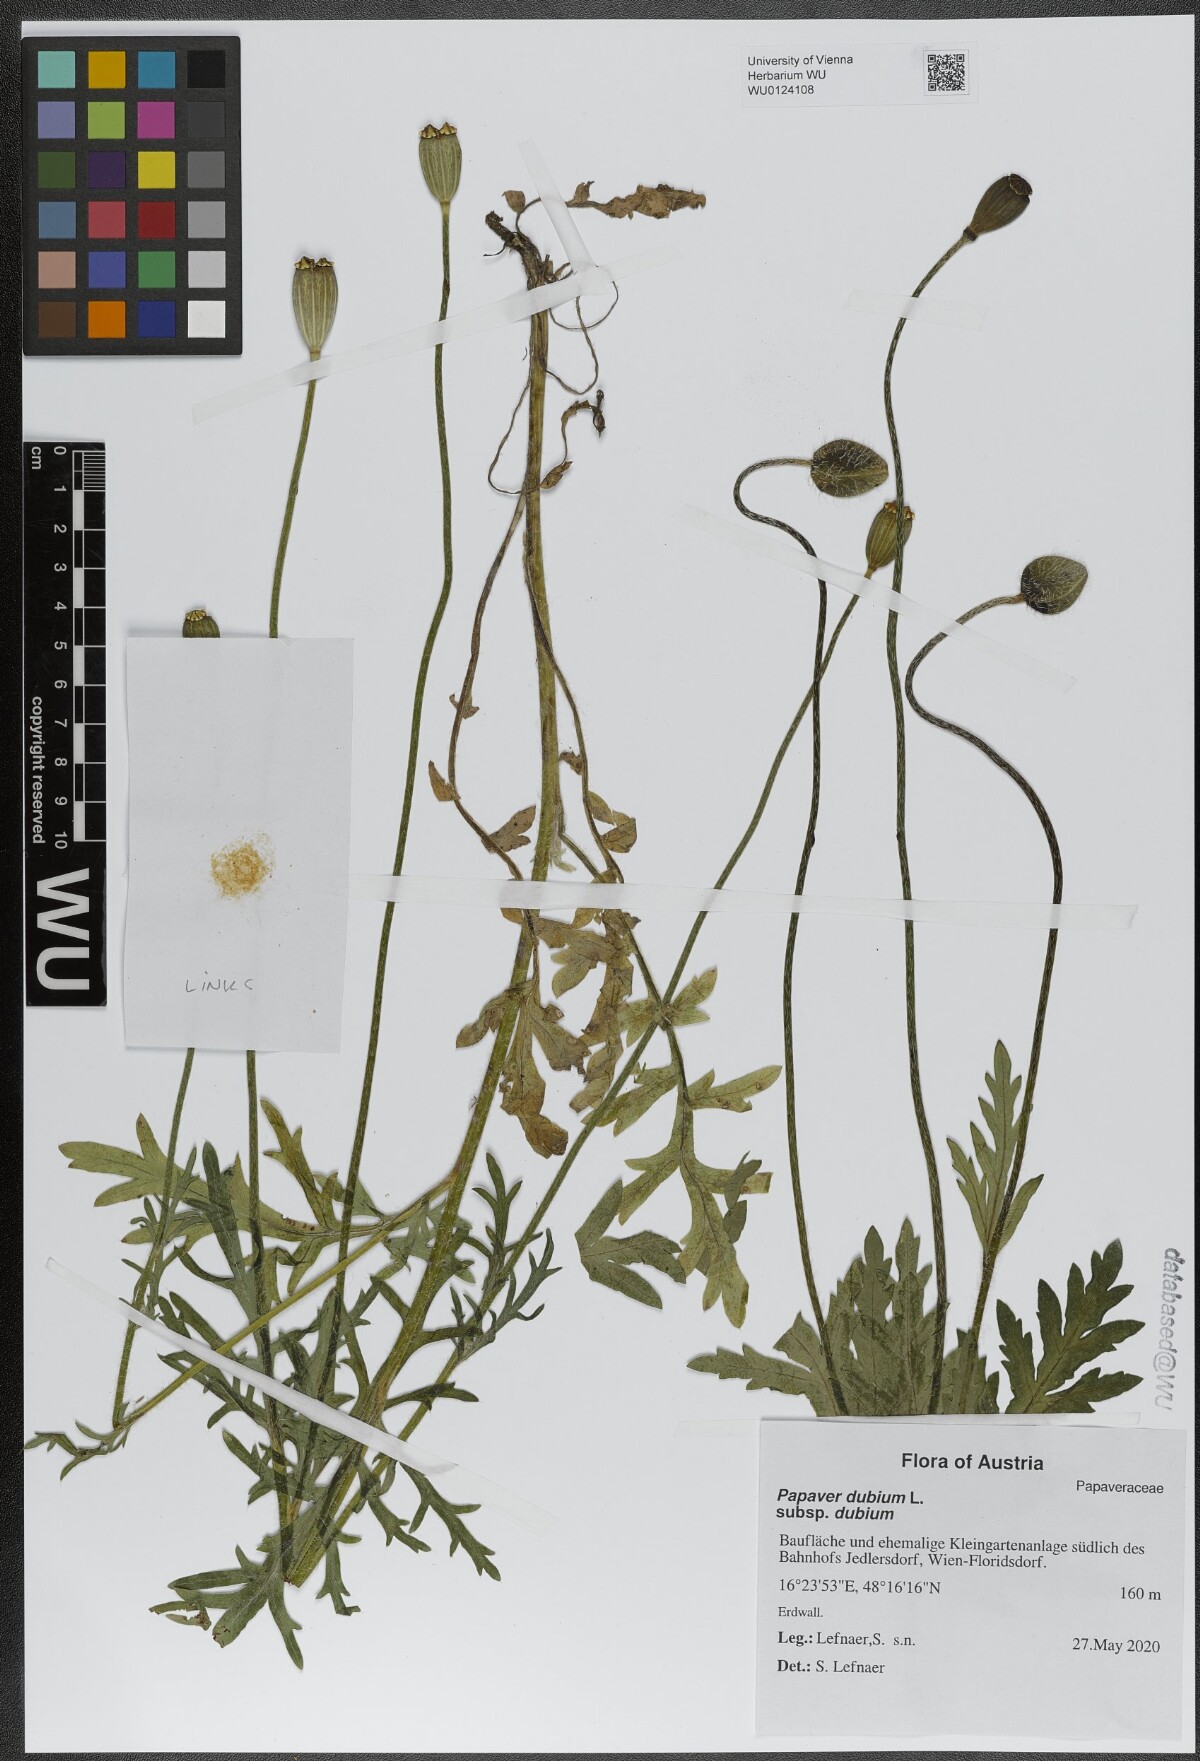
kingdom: Plantae
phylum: Tracheophyta
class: Magnoliopsida
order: Ranunculales
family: Papaveraceae
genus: Papaver
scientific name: Papaver dubium
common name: Long-headed poppy
